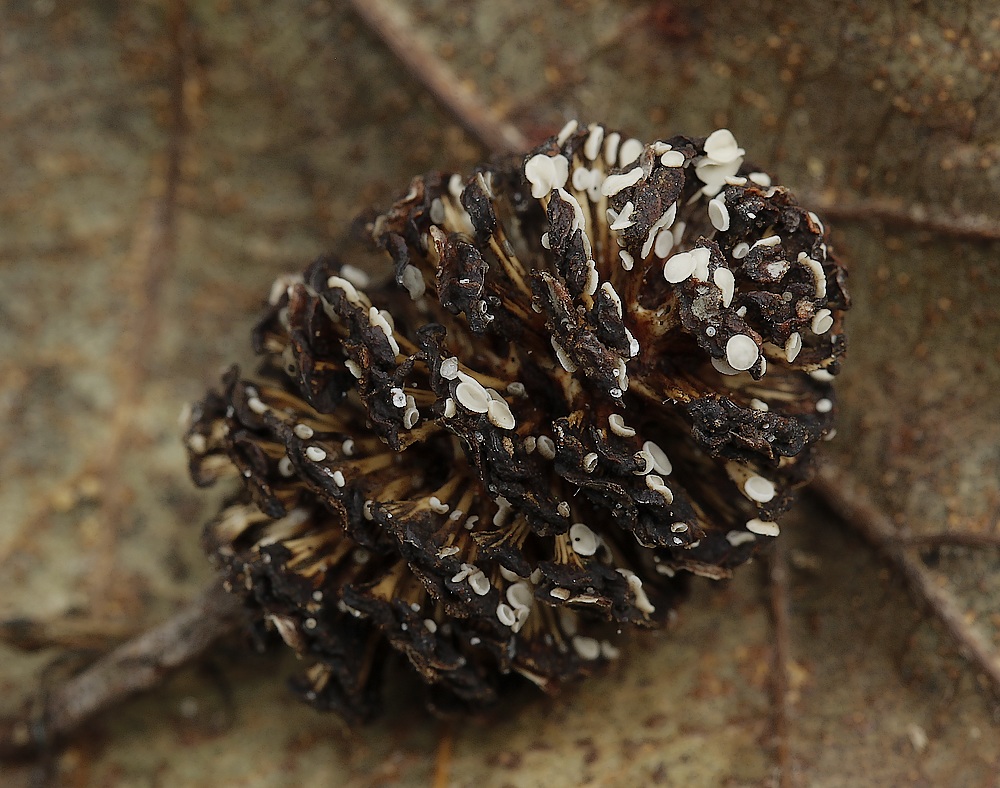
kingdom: Fungi
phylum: Ascomycota
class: Leotiomycetes
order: Helotiales
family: Mollisiaceae
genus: Mollisia
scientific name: Mollisia amenticola
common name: ellekogle-gråskive
